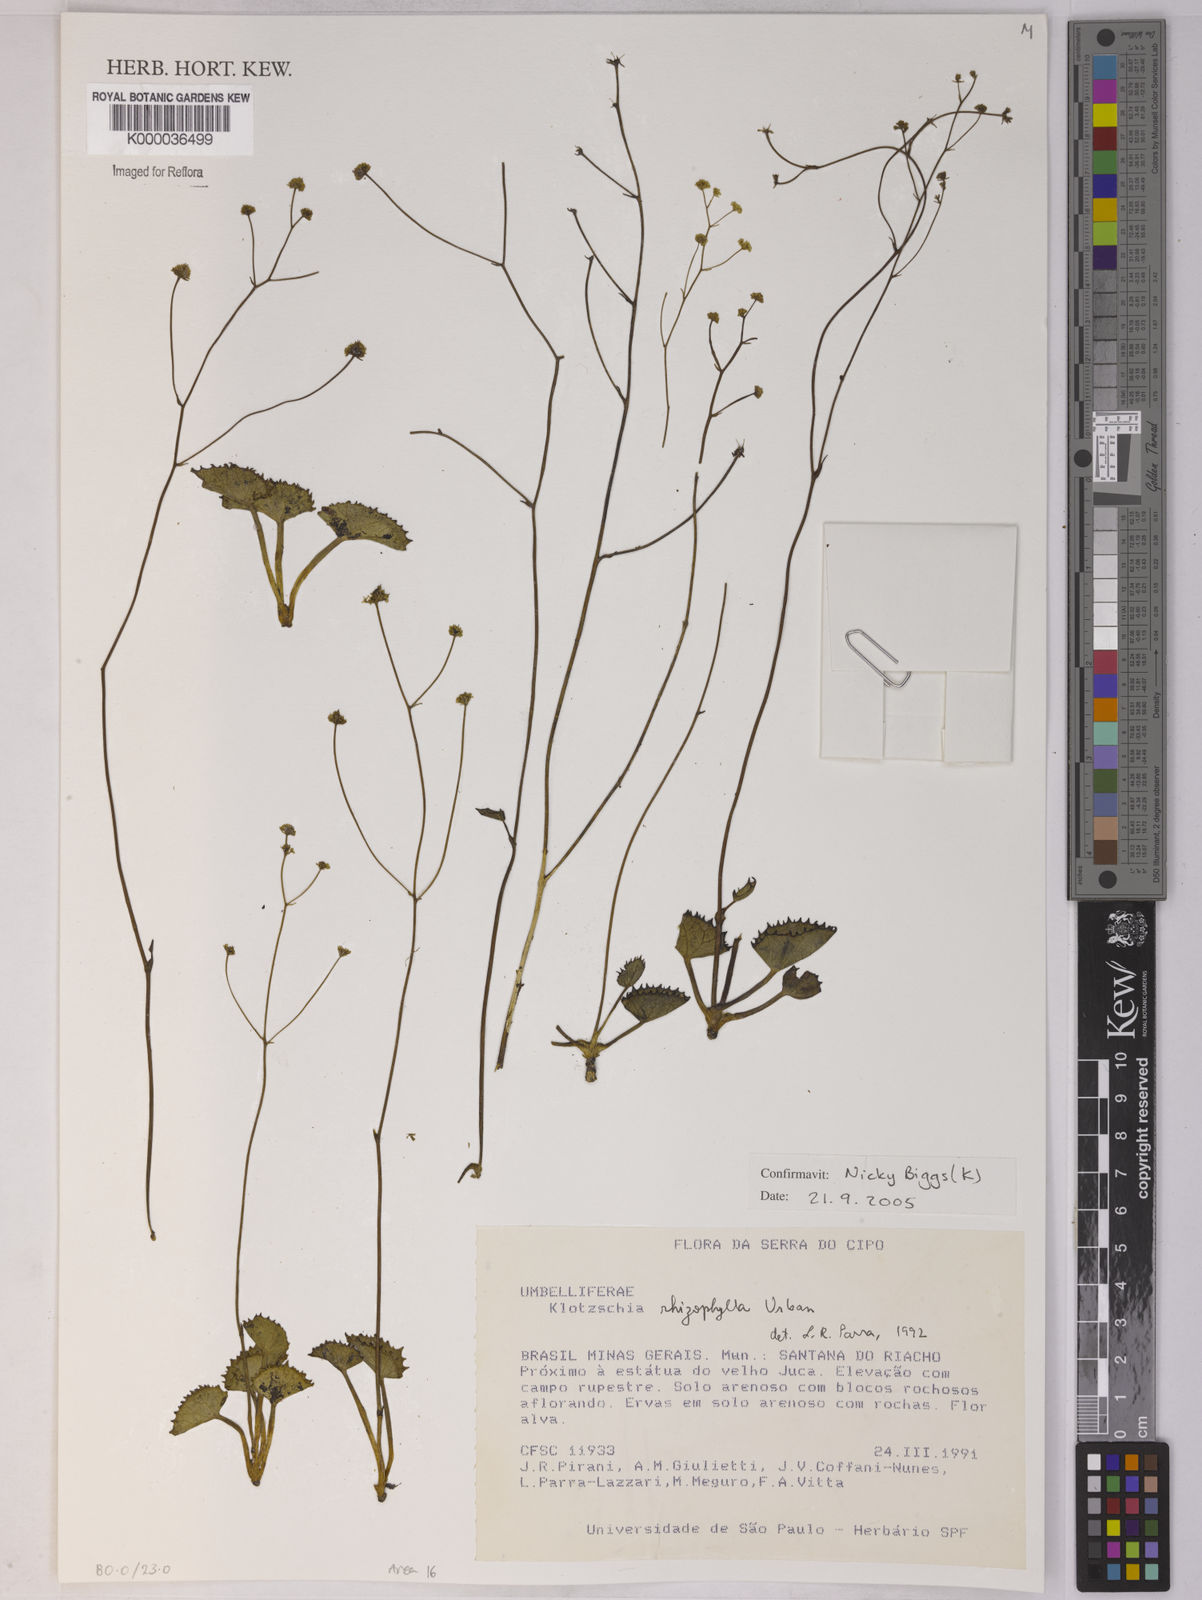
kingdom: Plantae
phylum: Tracheophyta
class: Magnoliopsida
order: Apiales
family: Apiaceae
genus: Klotzschia
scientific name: Klotzschia rhizophylla
